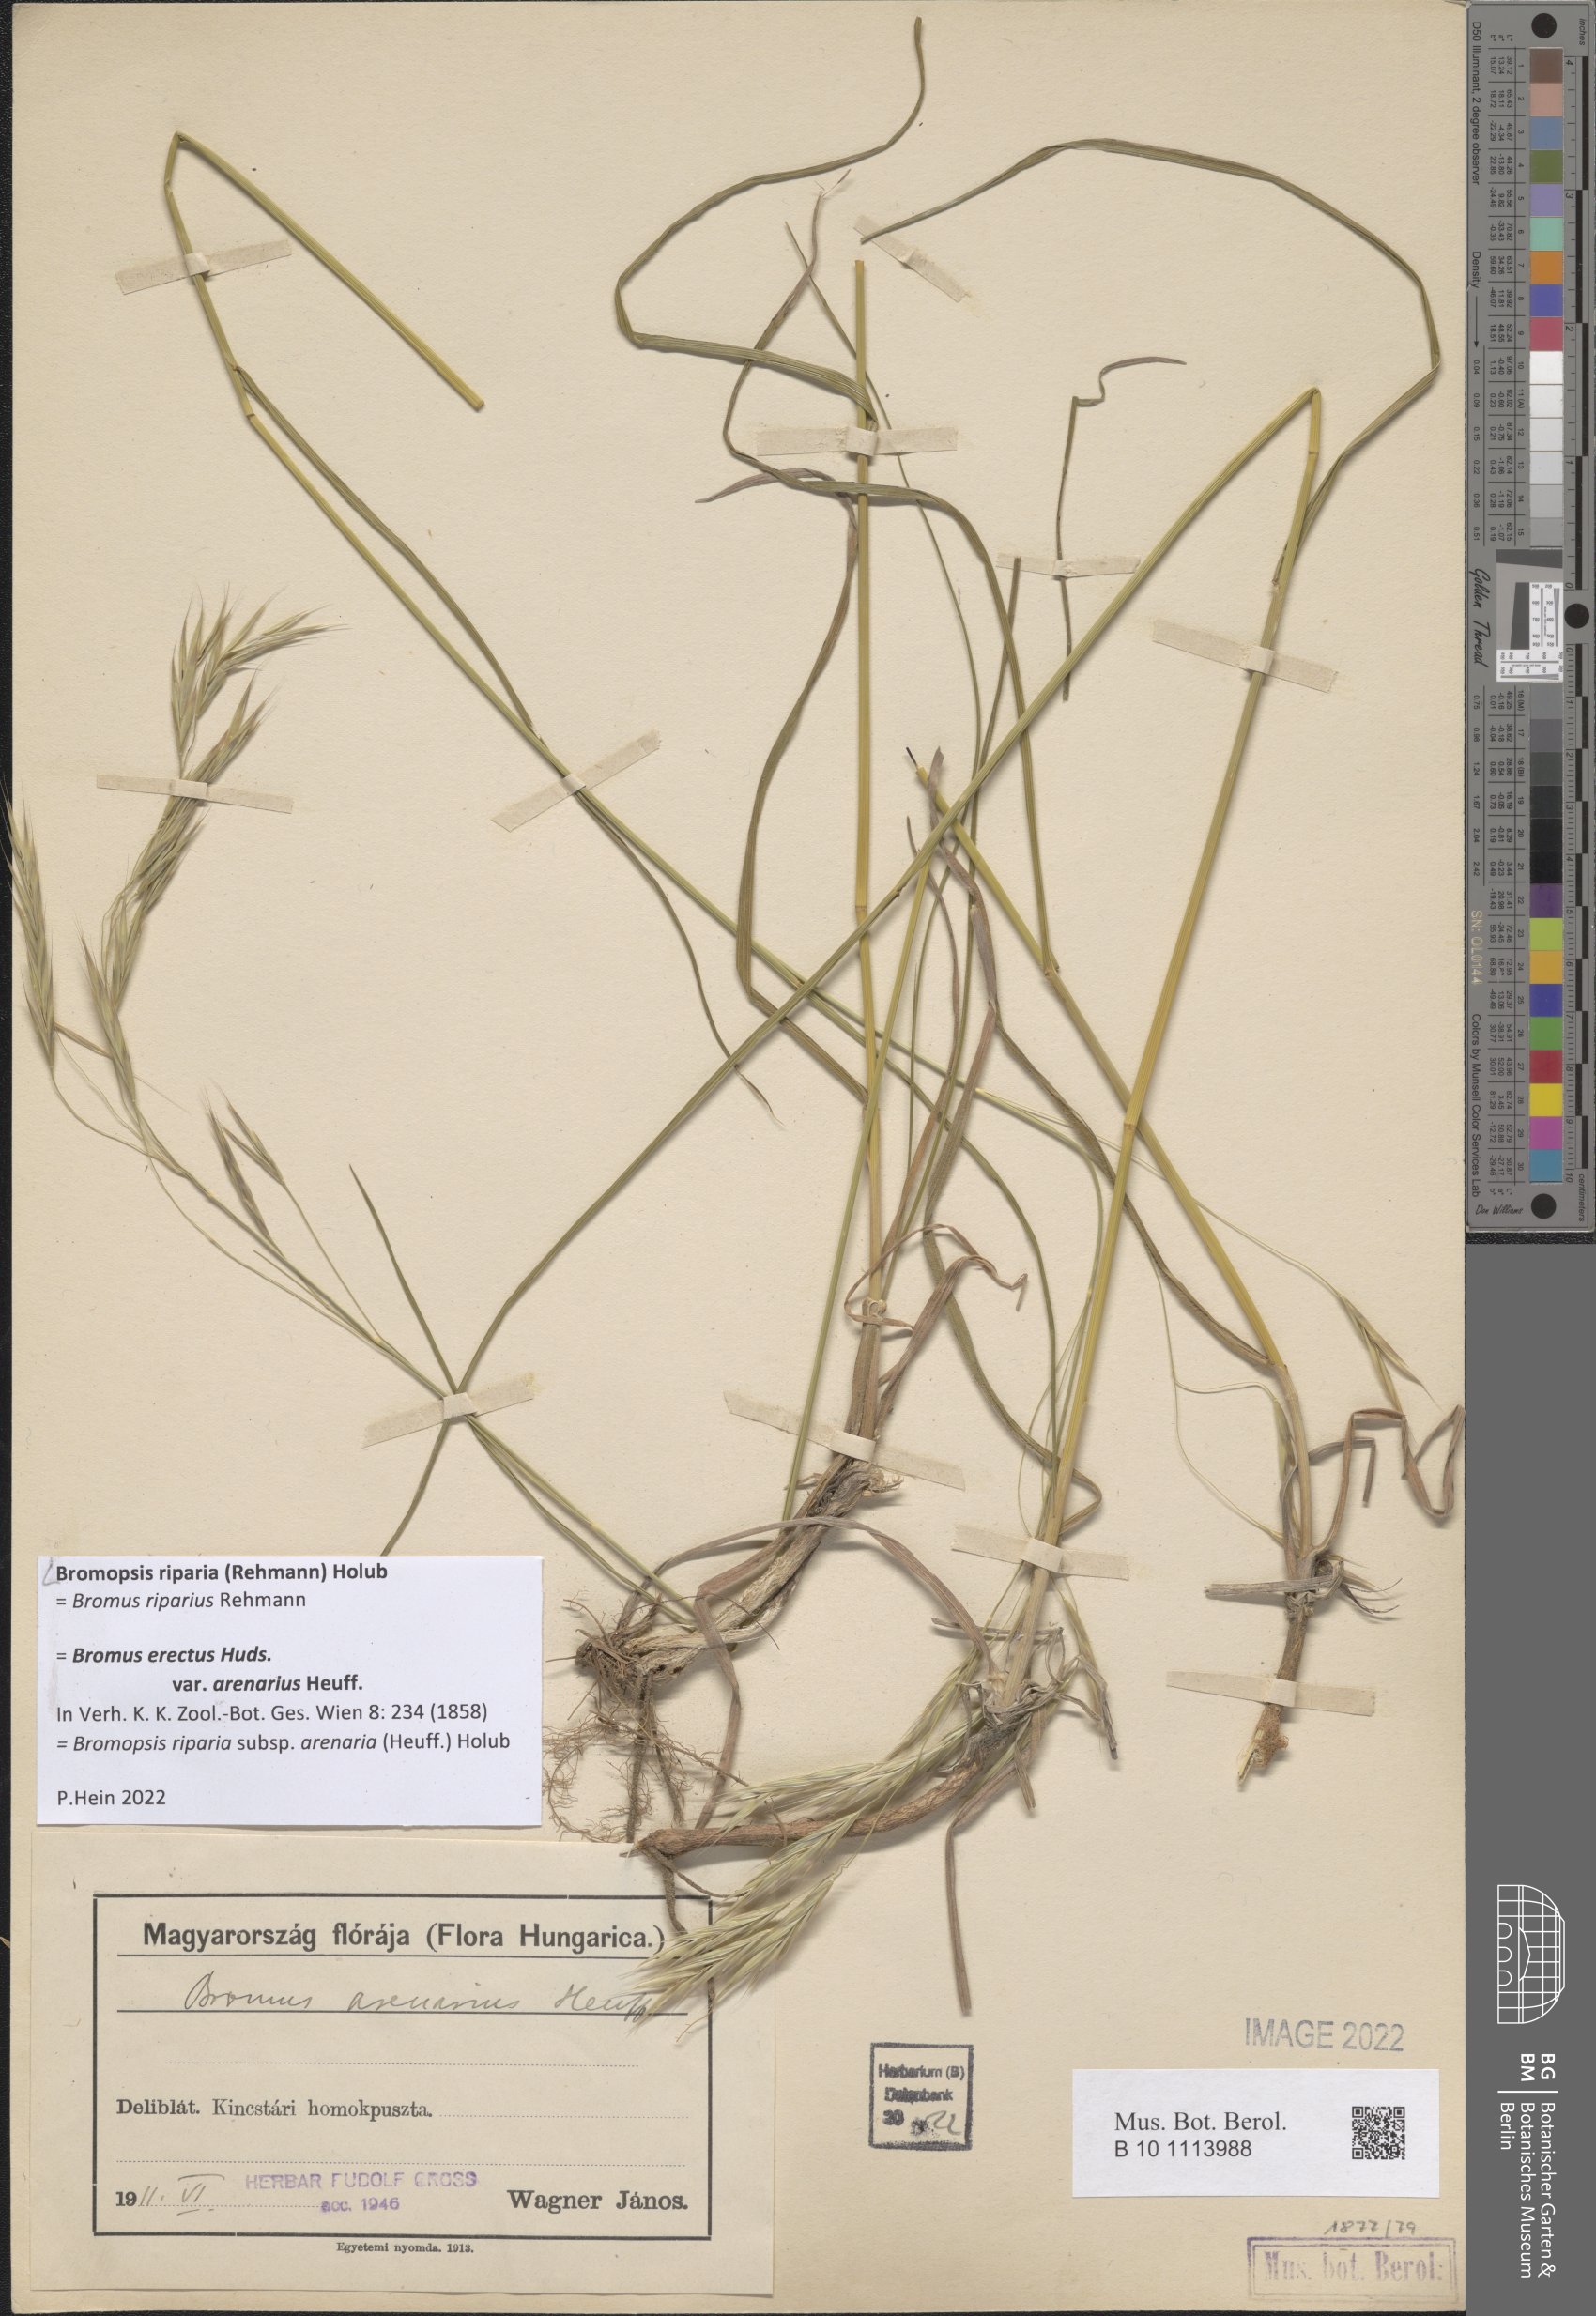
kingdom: Plantae
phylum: Tracheophyta
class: Liliopsida
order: Poales
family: Poaceae
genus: Bromus
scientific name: Bromus riparius
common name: Meadow brome
